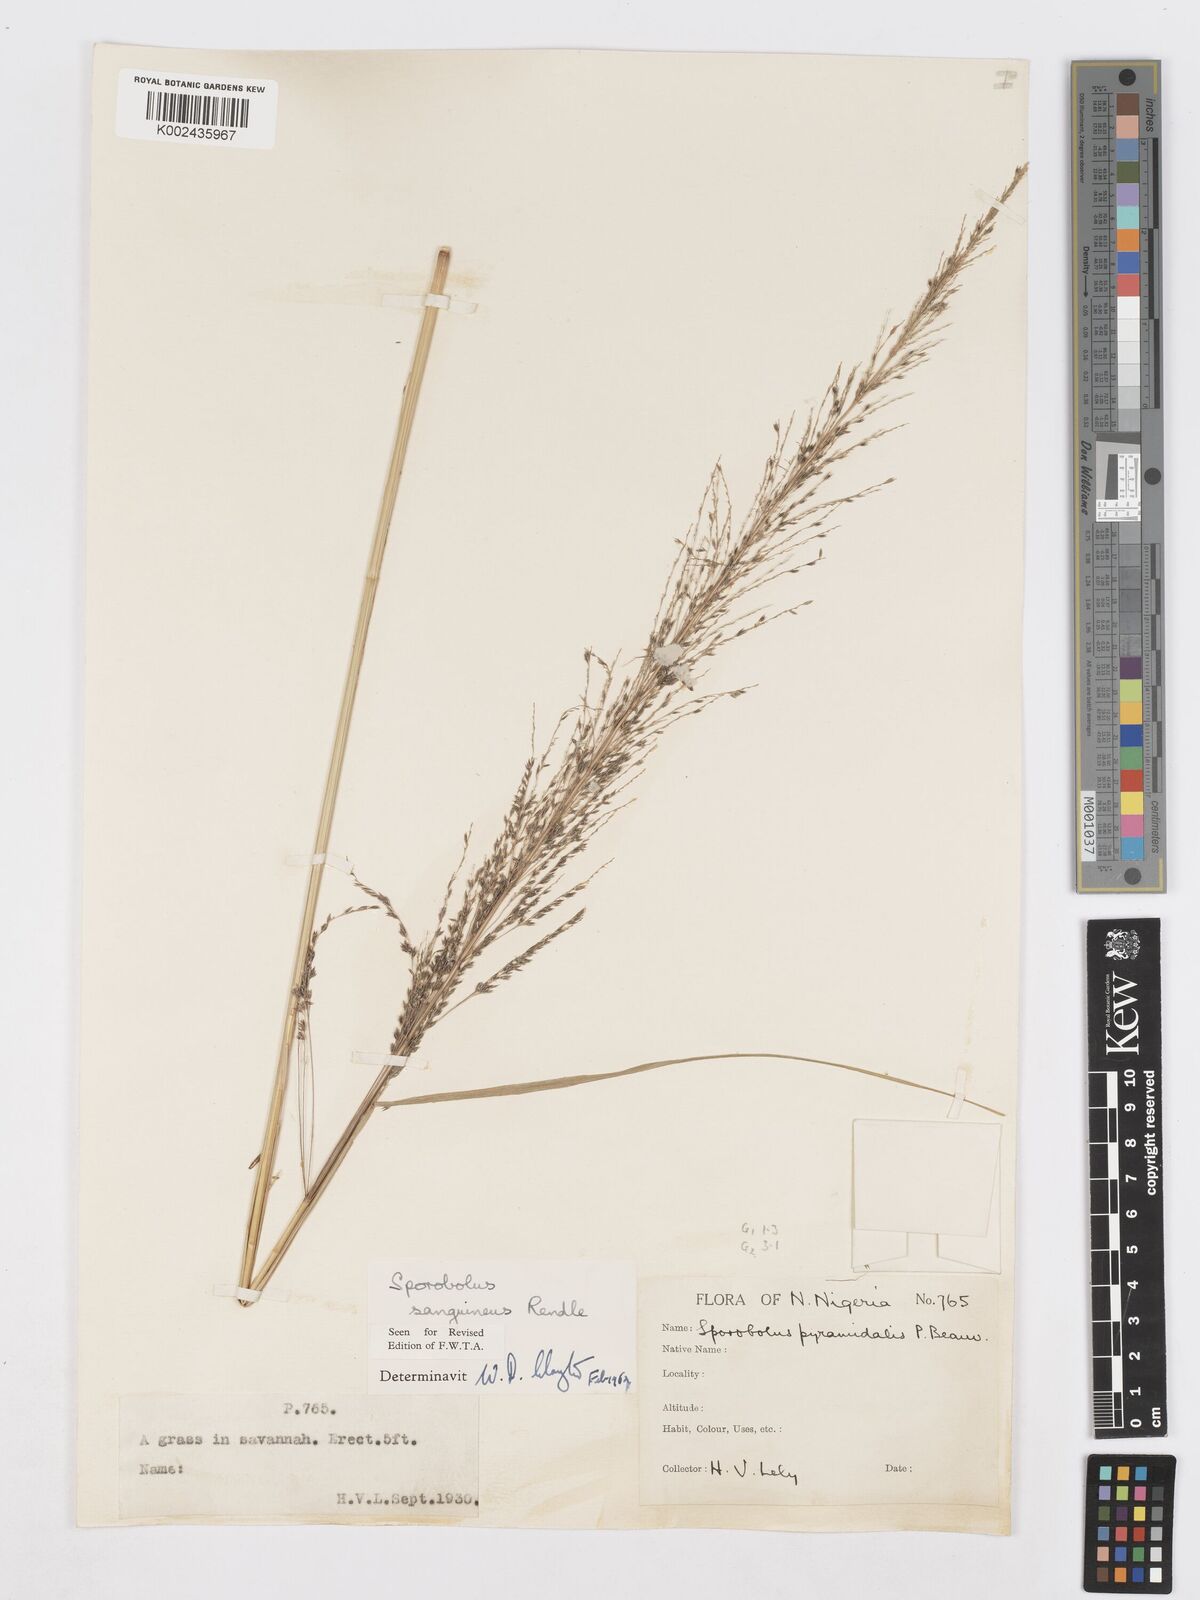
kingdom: Plantae
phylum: Tracheophyta
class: Liliopsida
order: Poales
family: Poaceae
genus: Sporobolus
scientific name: Sporobolus sanguineus
